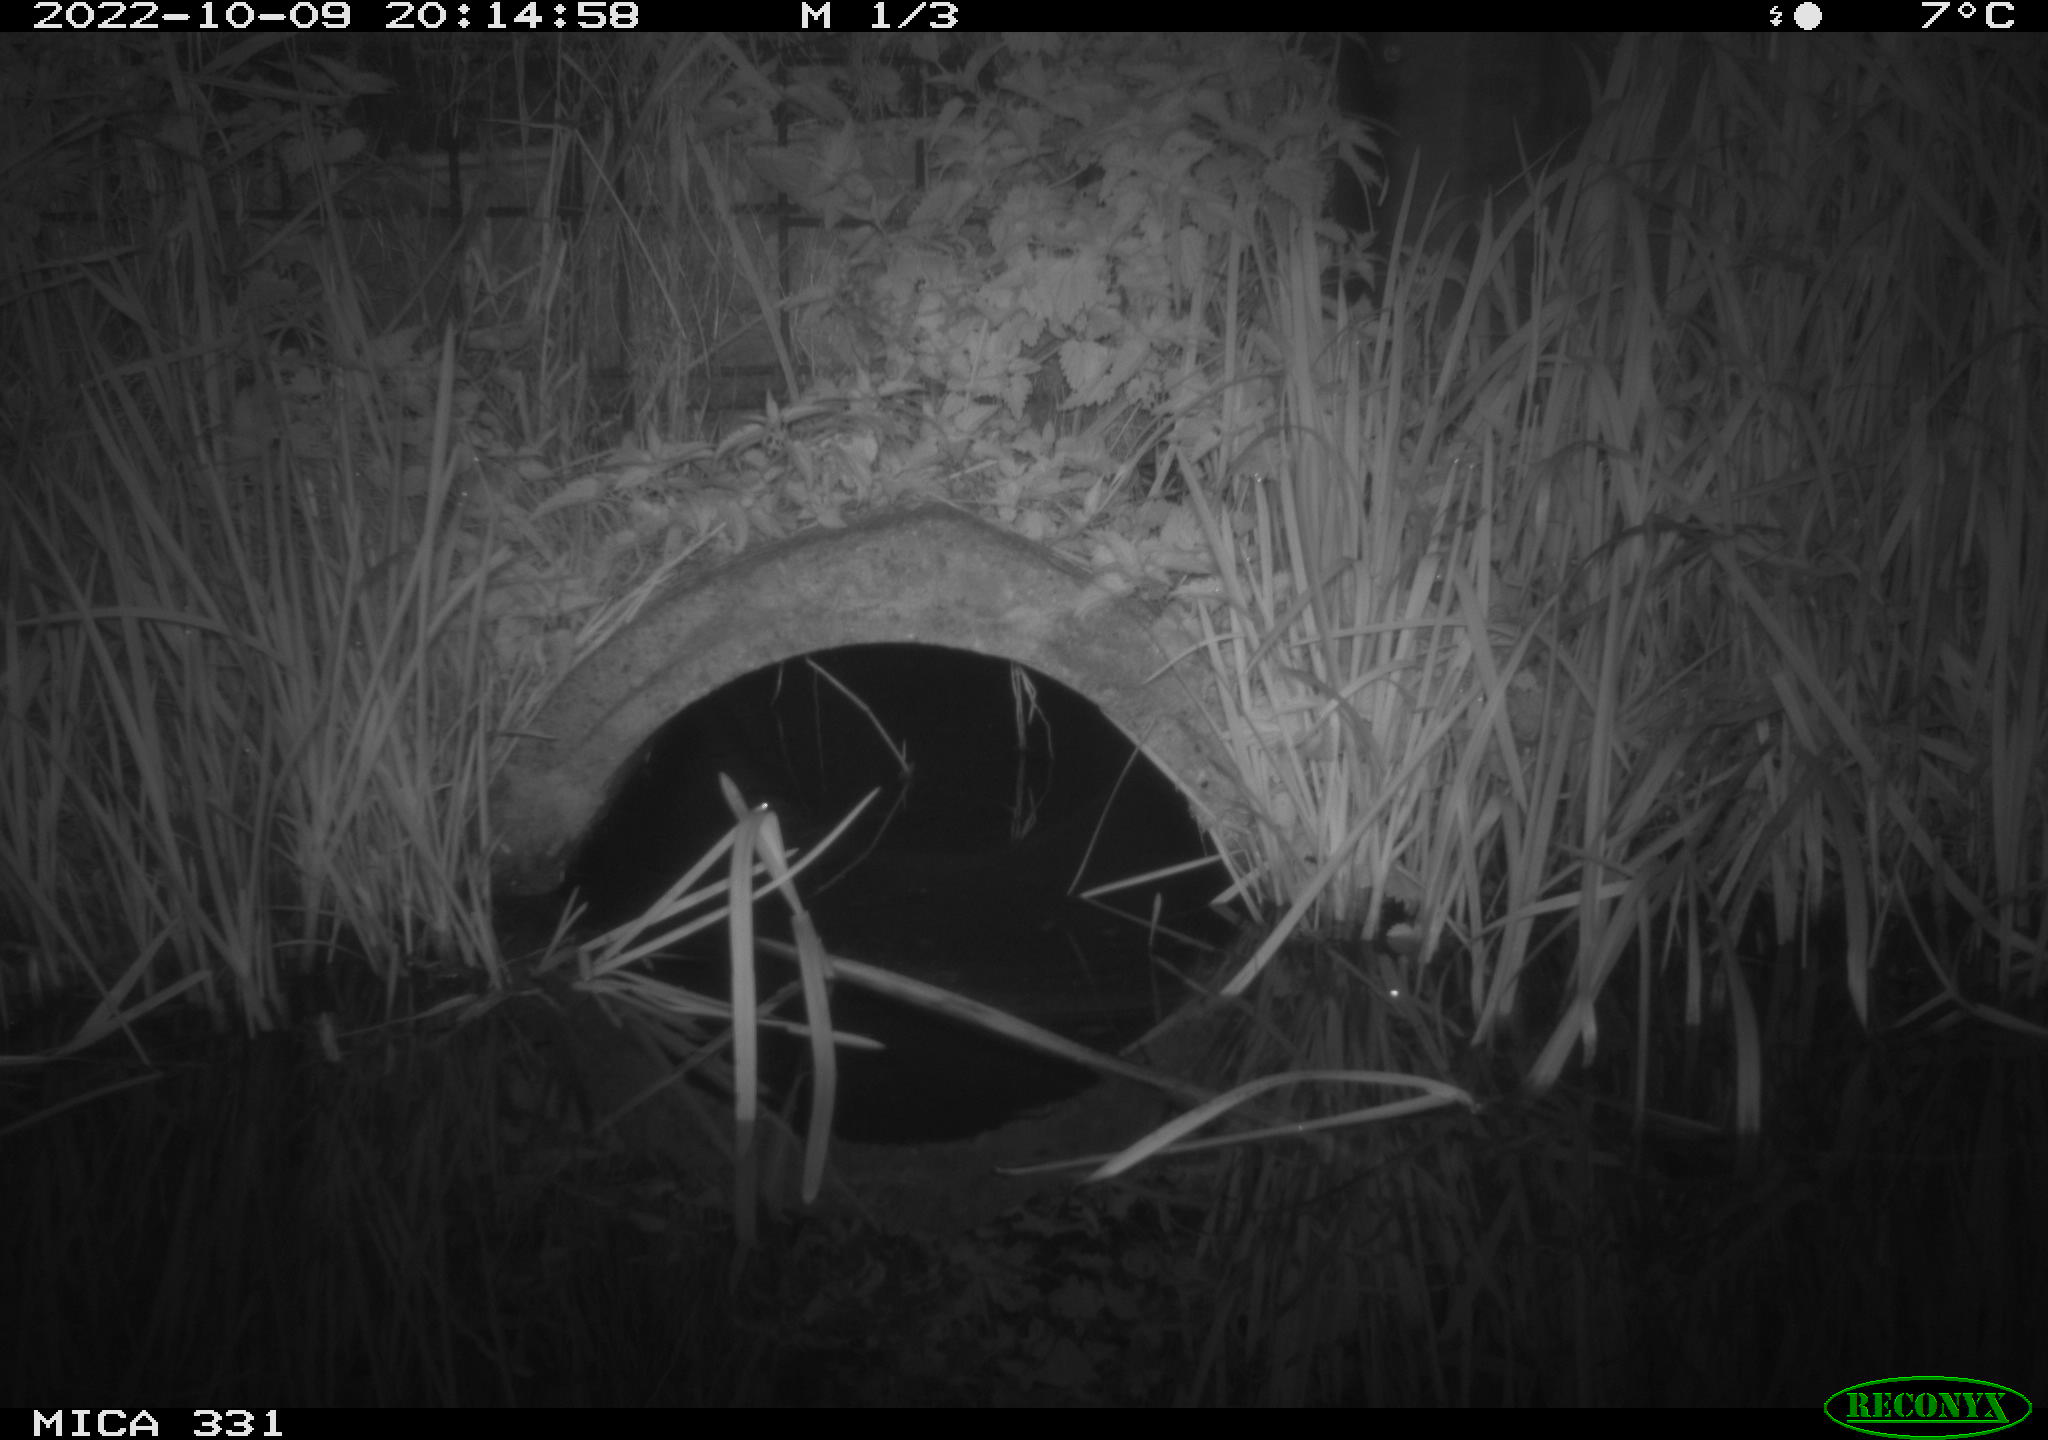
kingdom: Animalia
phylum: Chordata
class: Mammalia
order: Rodentia
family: Muridae
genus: Rattus
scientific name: Rattus norvegicus
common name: Brown rat
